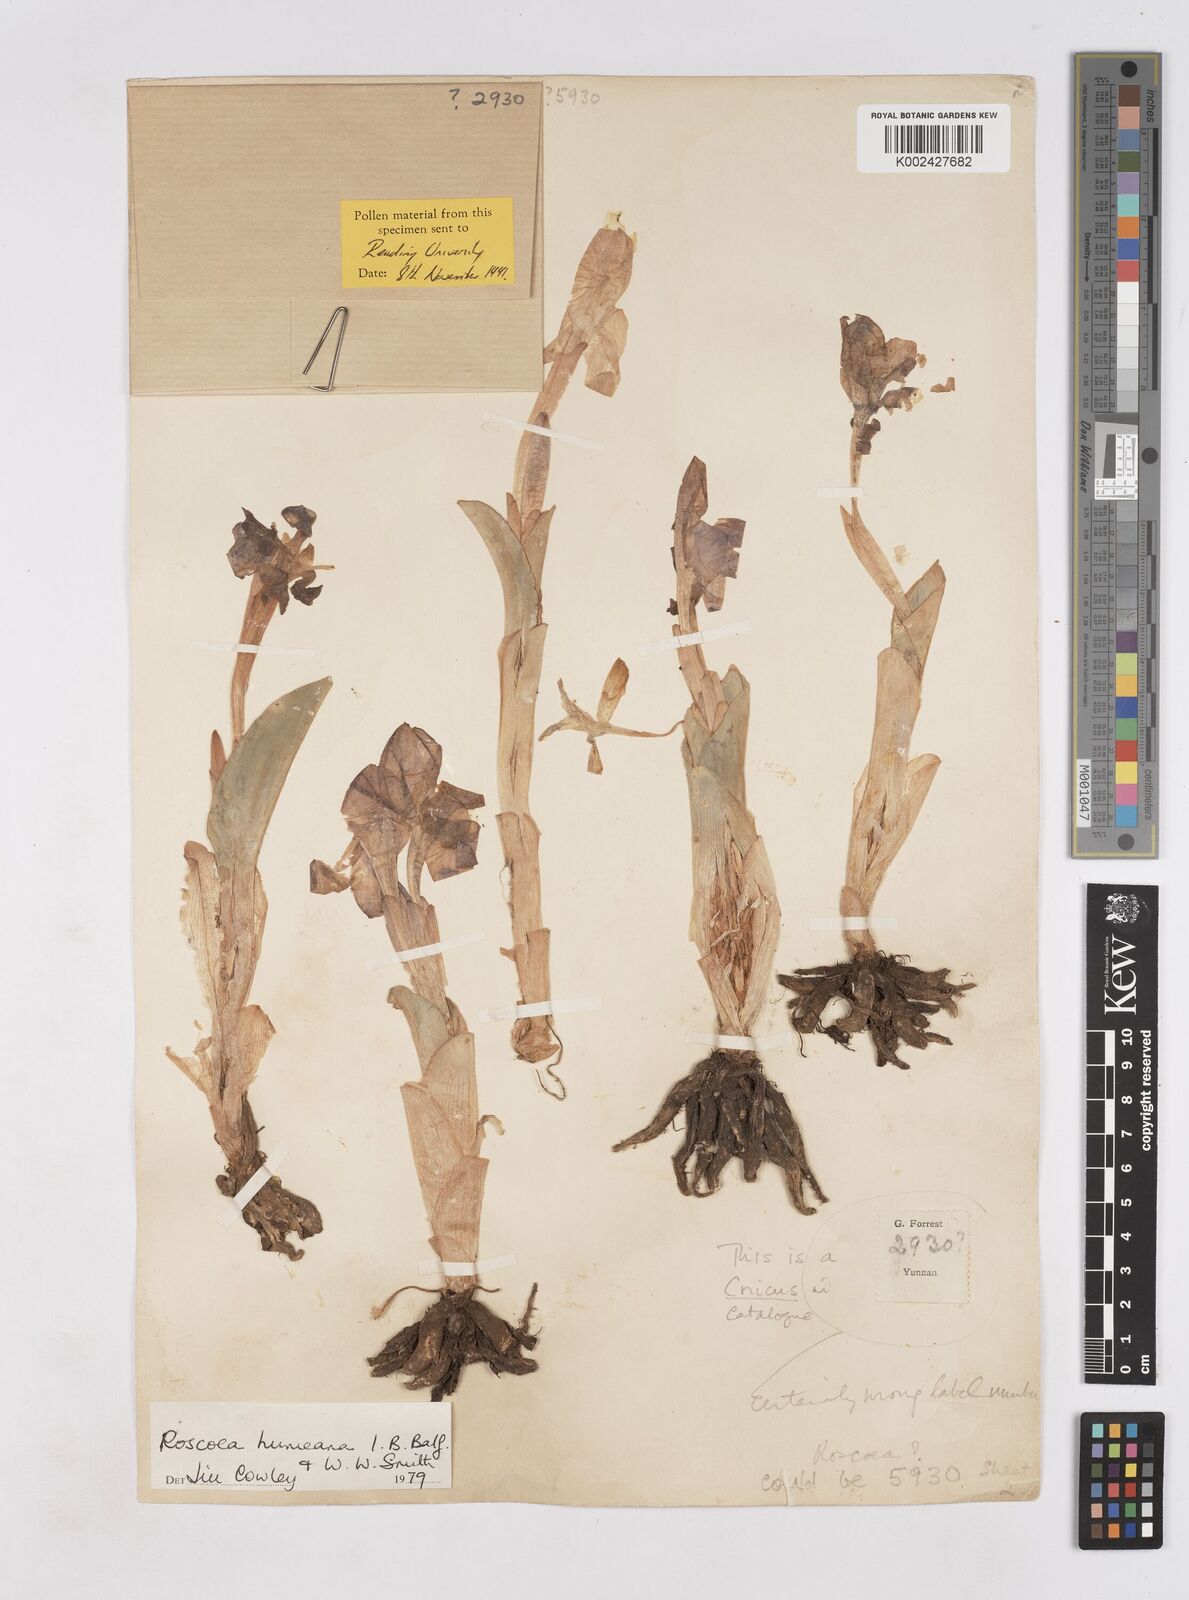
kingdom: Plantae
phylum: Tracheophyta
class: Liliopsida
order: Zingiberales
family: Zingiberaceae
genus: Roscoea
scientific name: Roscoea humeana
